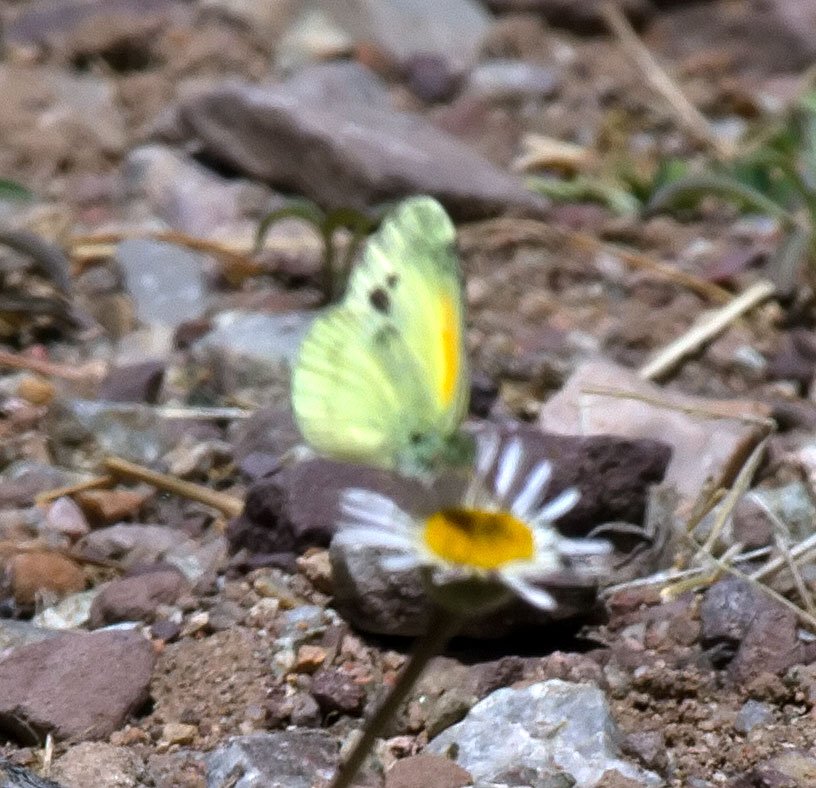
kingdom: Animalia
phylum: Arthropoda
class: Insecta
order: Lepidoptera
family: Pieridae
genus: Nathalis
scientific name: Nathalis iole
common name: Dainty Sulphur
